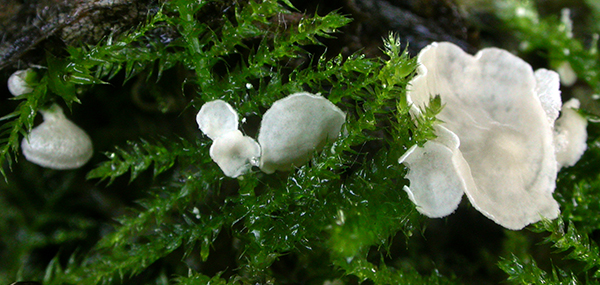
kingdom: Fungi
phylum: Basidiomycota
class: Agaricomycetes
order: Agaricales
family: Hygrophoraceae
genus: Arrhenia
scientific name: Arrhenia retiruga
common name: lille fontænehat
